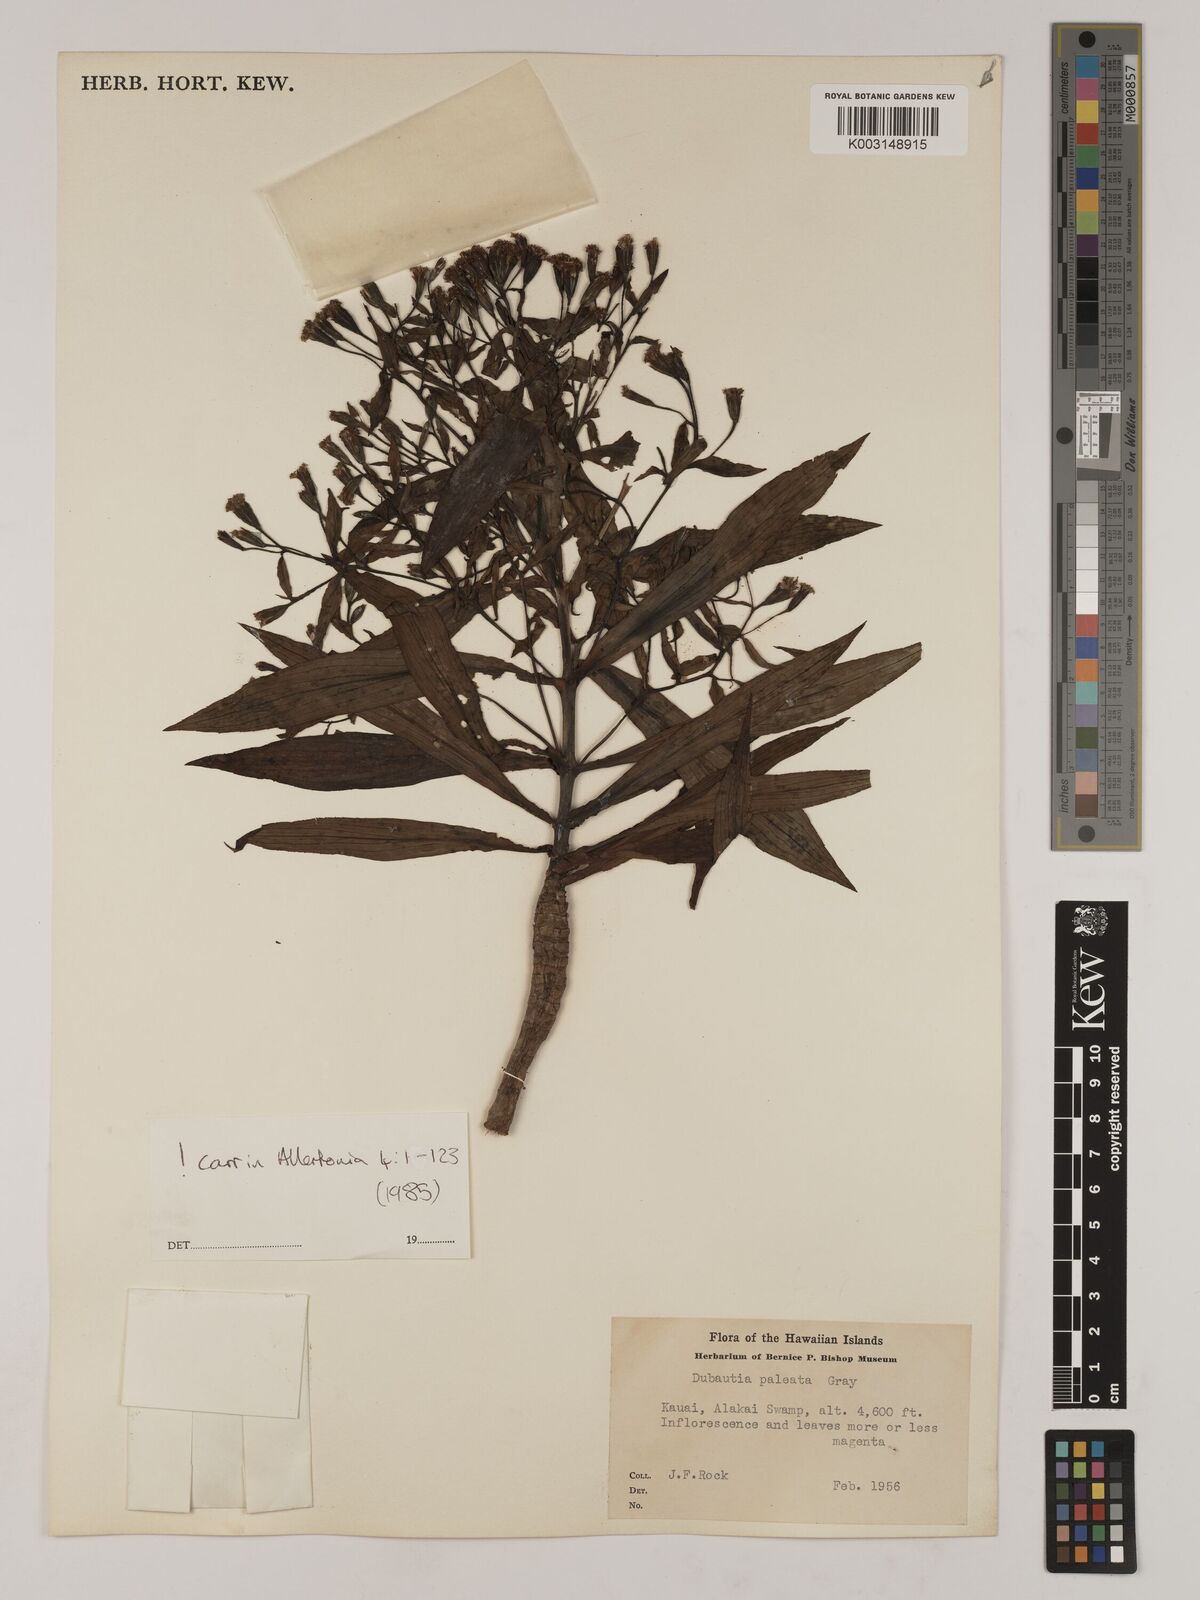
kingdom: Plantae
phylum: Tracheophyta
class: Magnoliopsida
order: Asterales
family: Asteraceae
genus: Dubautia
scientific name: Dubautia paleata
